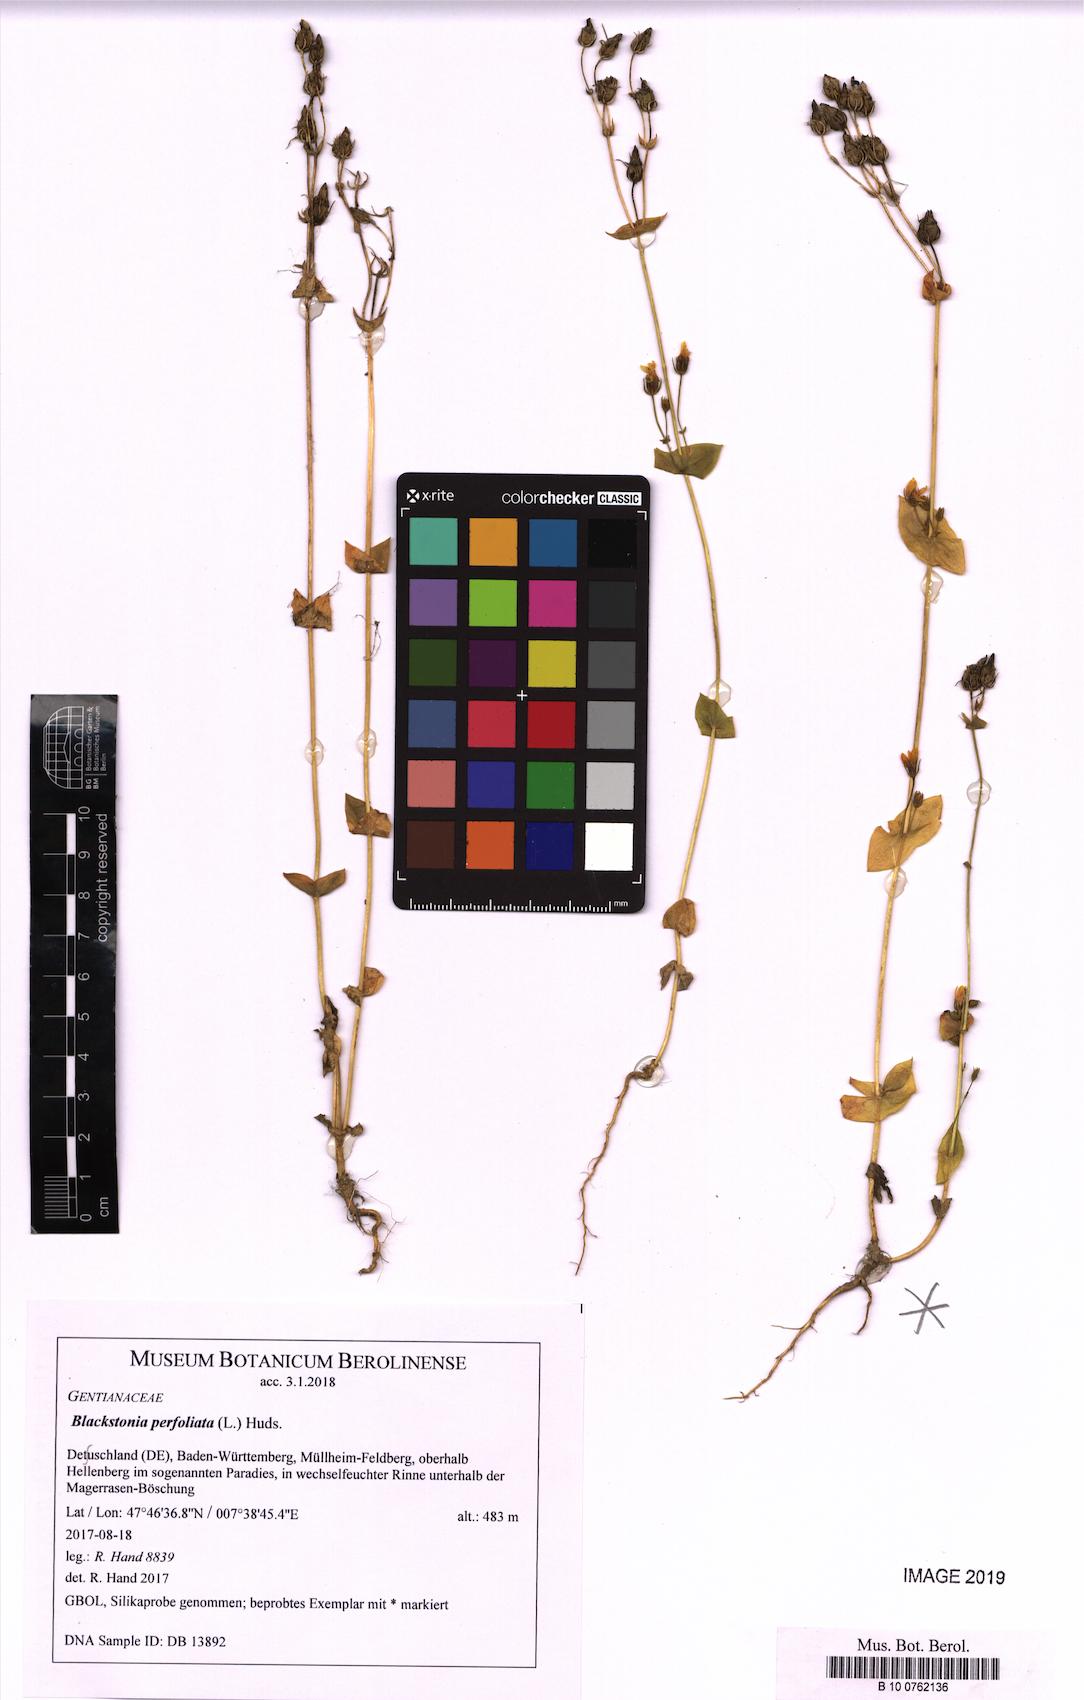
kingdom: Plantae
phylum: Tracheophyta
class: Magnoliopsida
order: Gentianales
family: Gentianaceae
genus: Blackstonia
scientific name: Blackstonia perfoliata
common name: Yellow-wort
